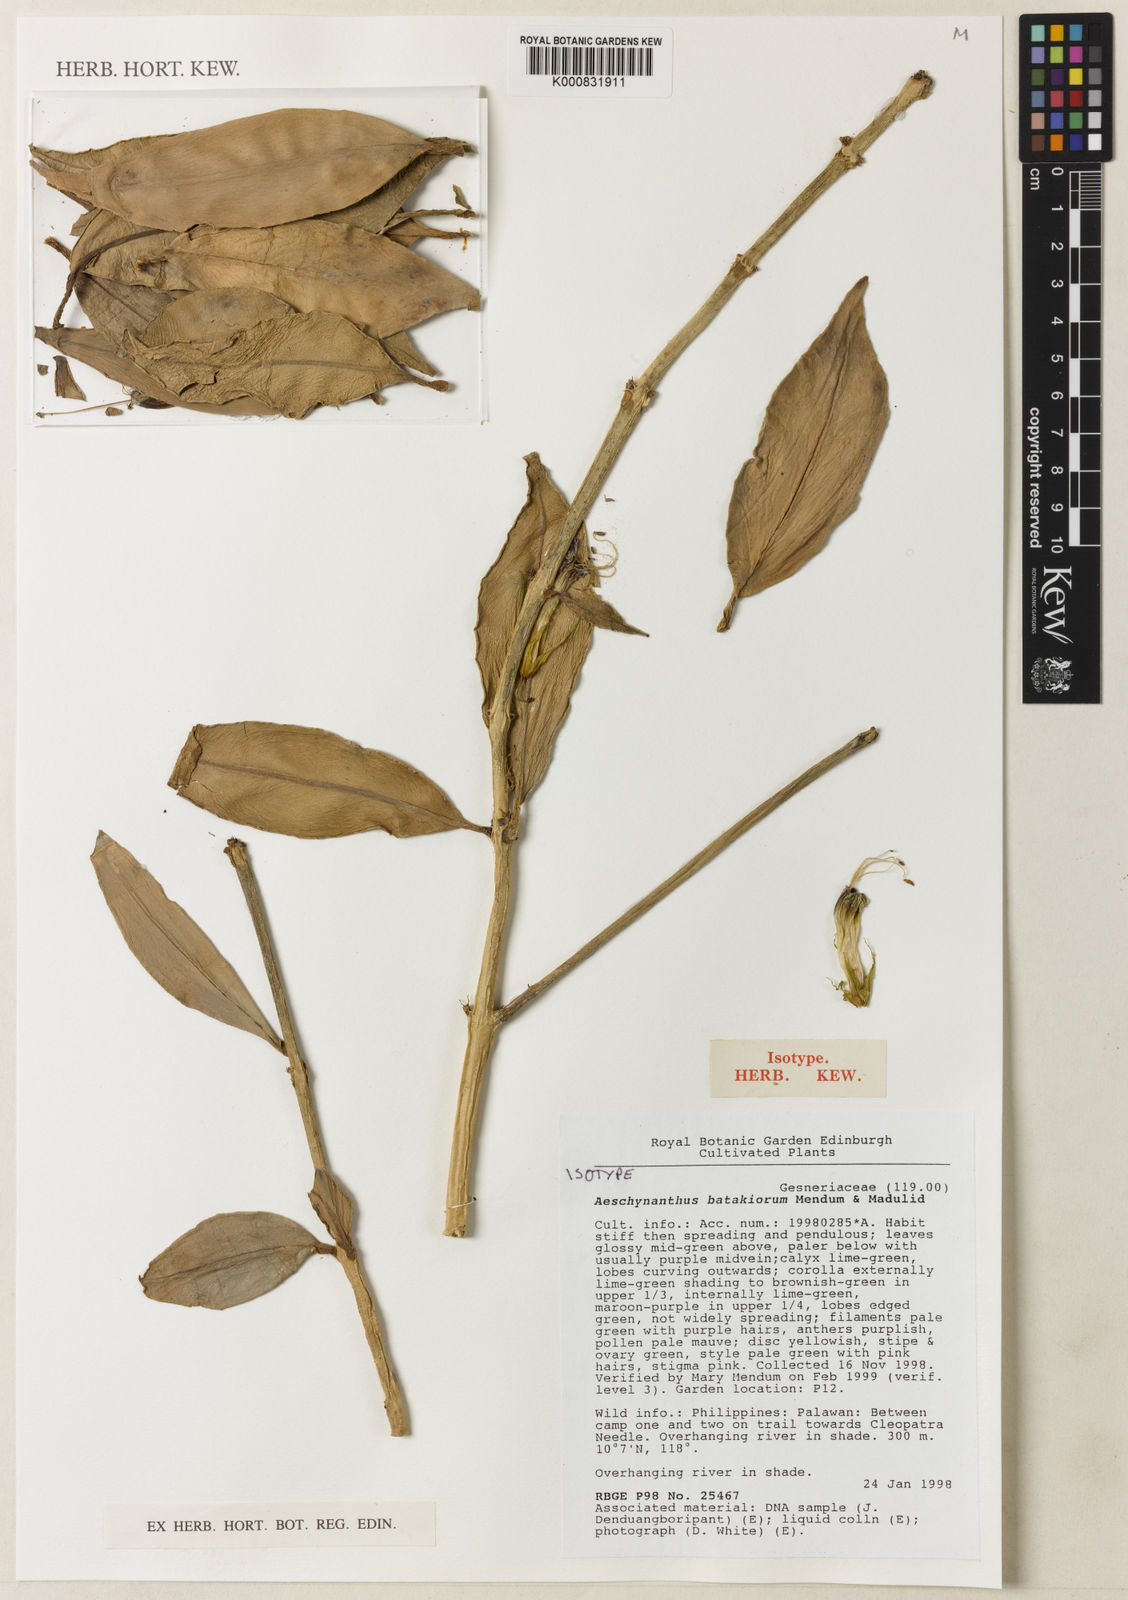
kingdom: Plantae
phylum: Tracheophyta
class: Magnoliopsida
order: Lamiales
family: Gesneriaceae
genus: Aeschynanthus
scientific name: Aeschynanthus batakiorum
